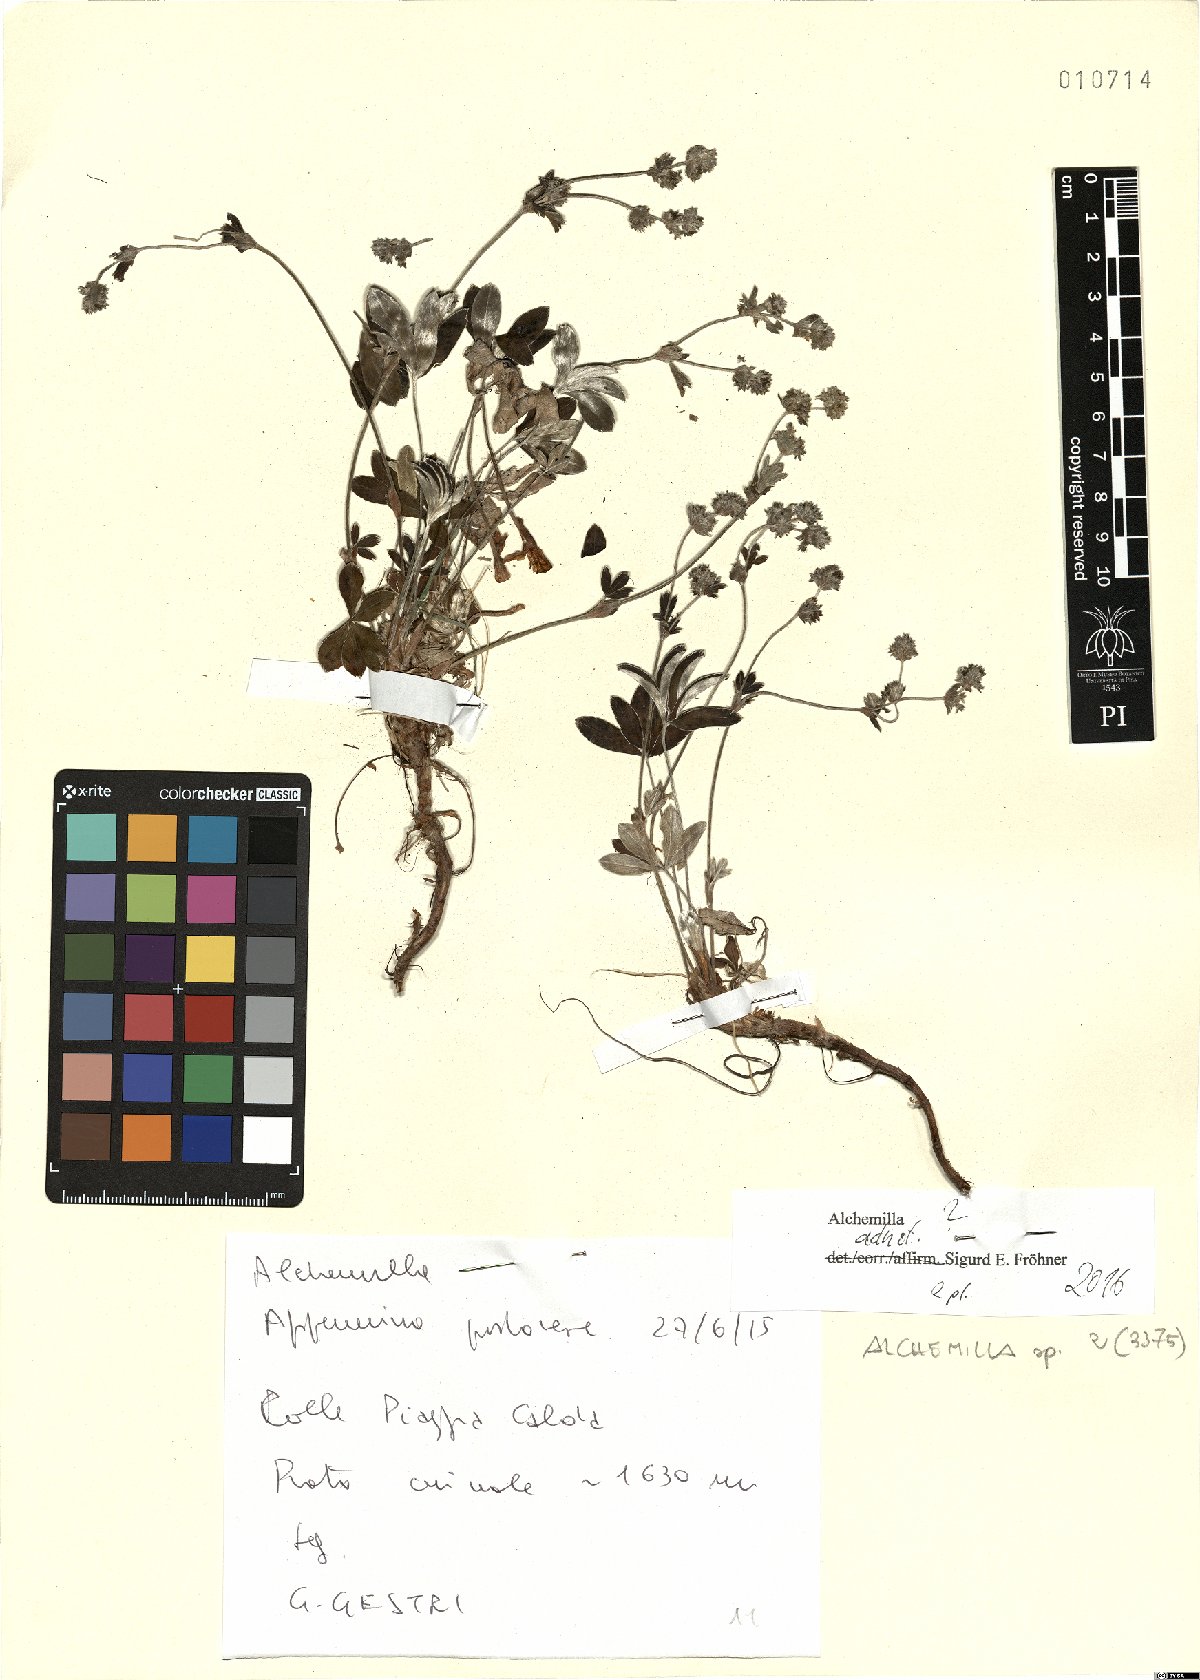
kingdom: Plantae
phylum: Tracheophyta
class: Magnoliopsida
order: Rosales
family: Rosaceae
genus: Alchemilla
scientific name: Alchemilla
